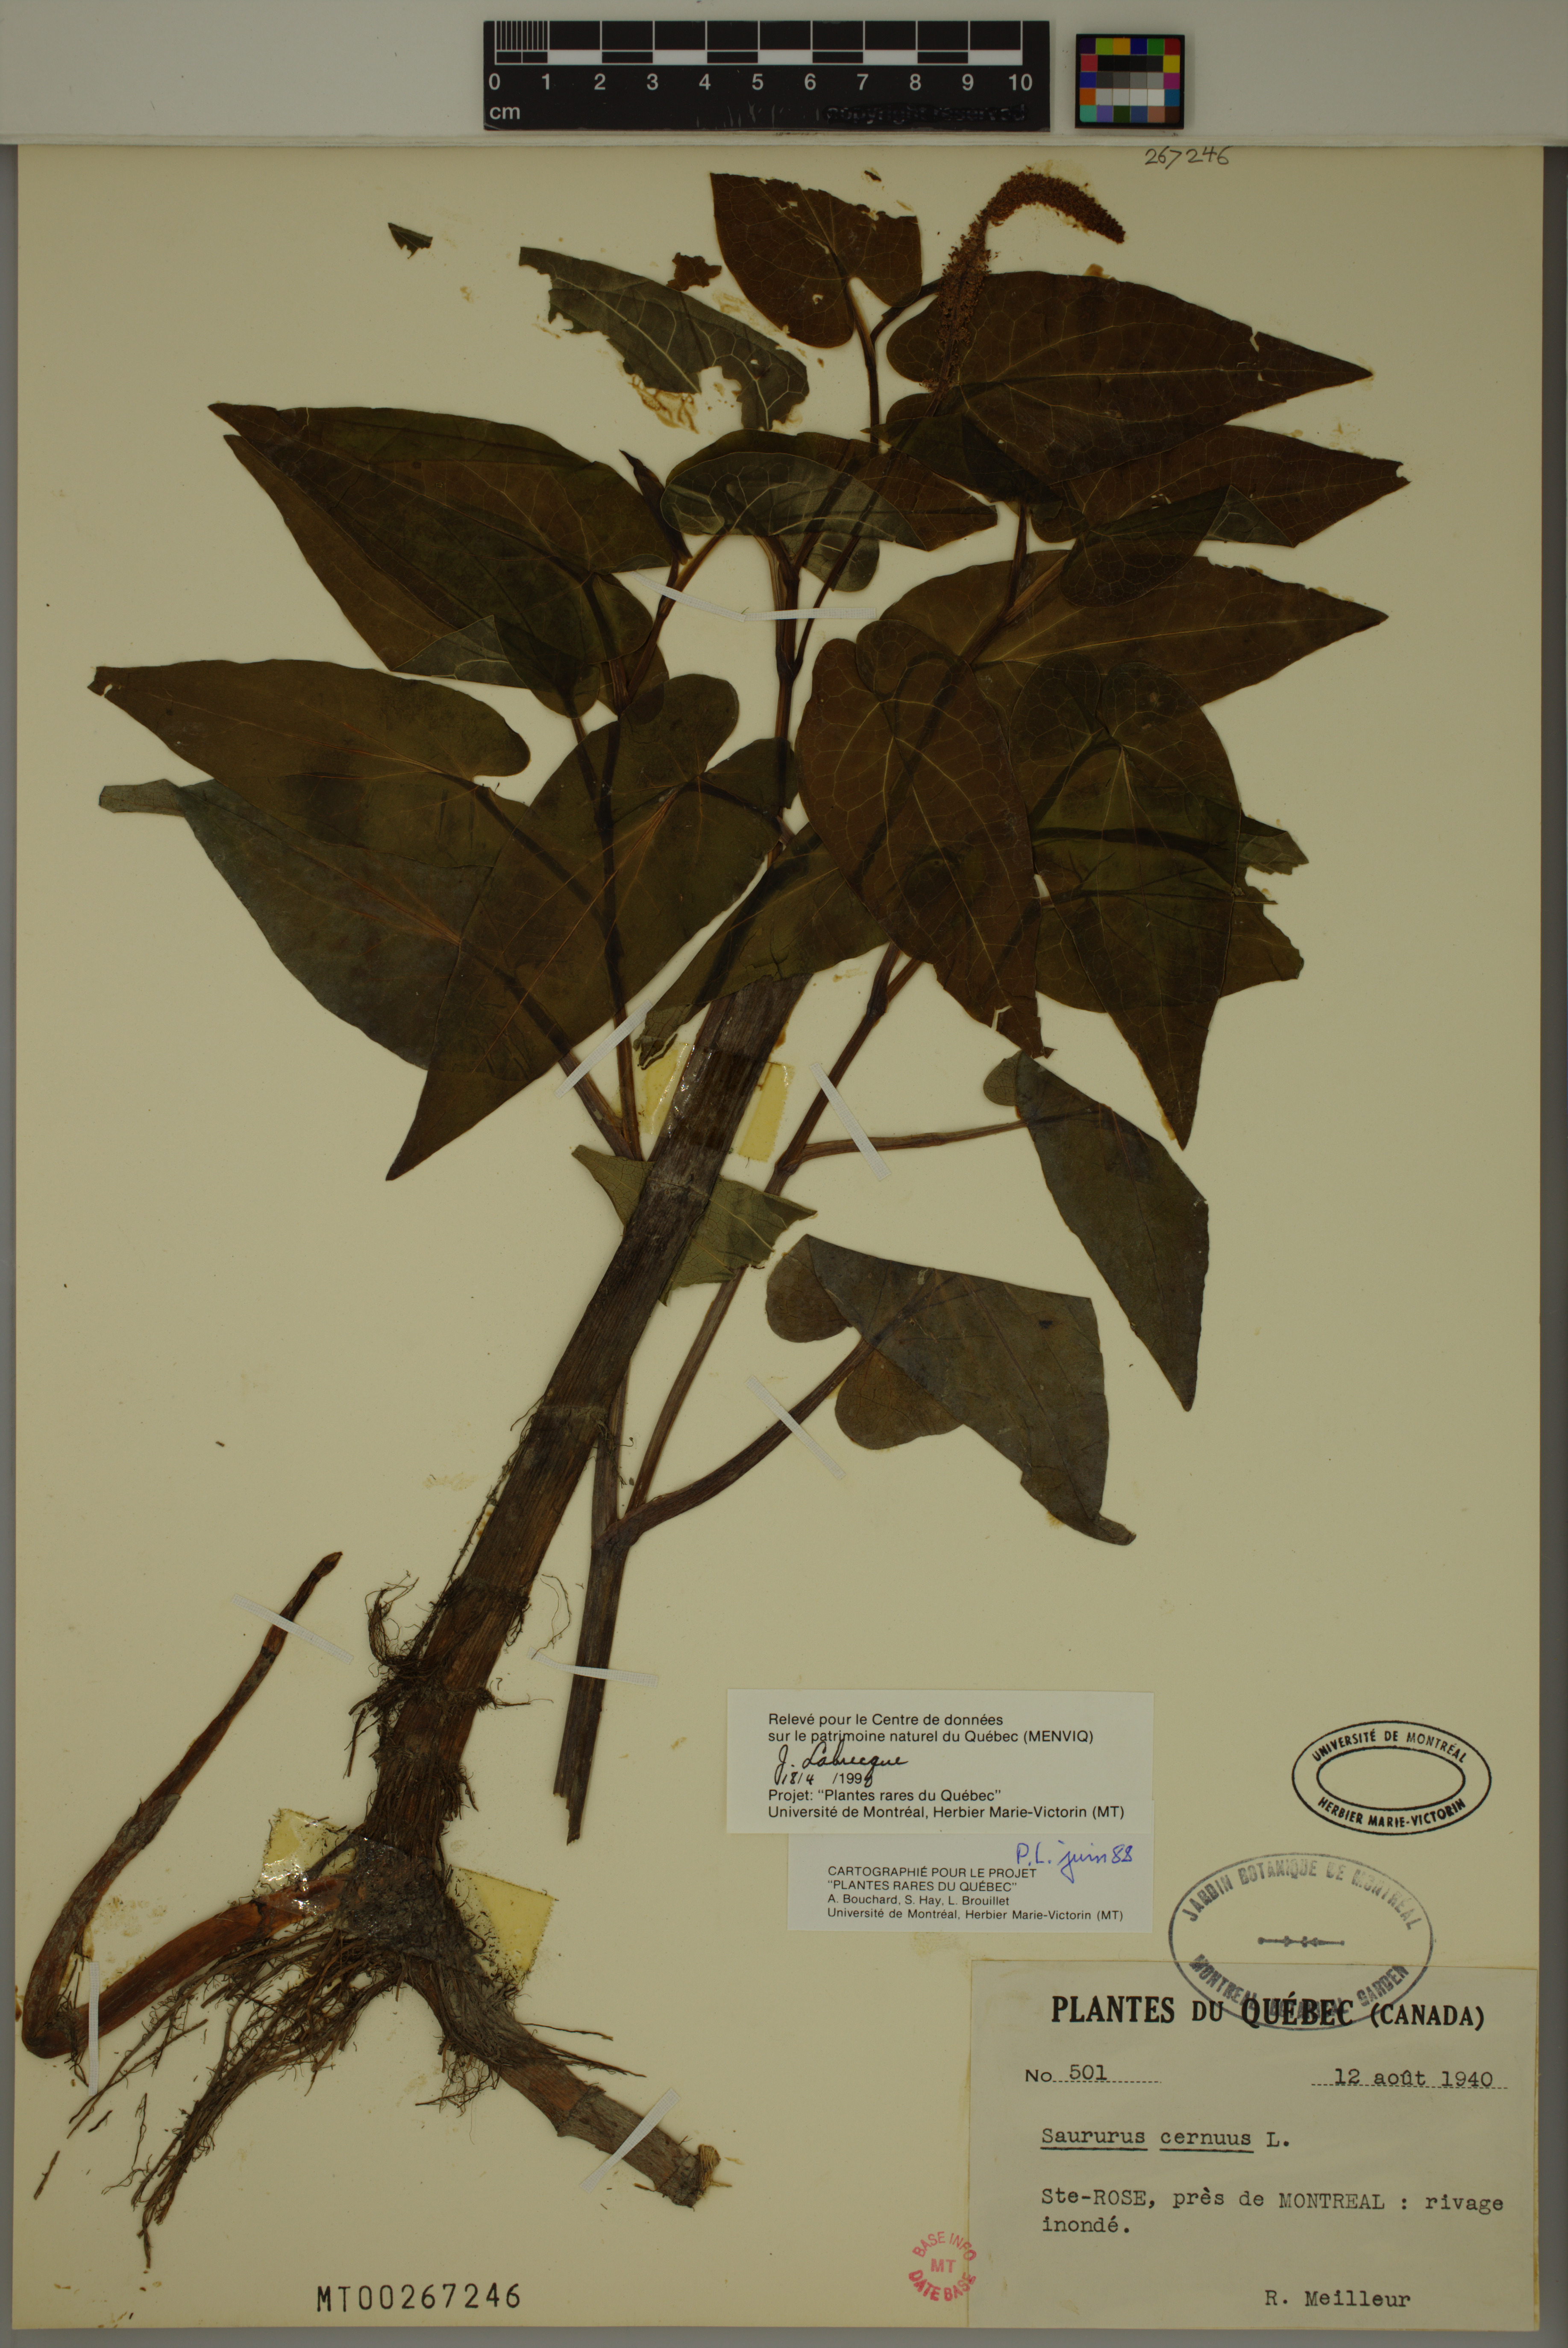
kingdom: Plantae
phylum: Tracheophyta
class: Magnoliopsida
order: Piperales
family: Saururaceae
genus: Saururus
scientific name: Saururus cernuus
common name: Lizard's-tail
